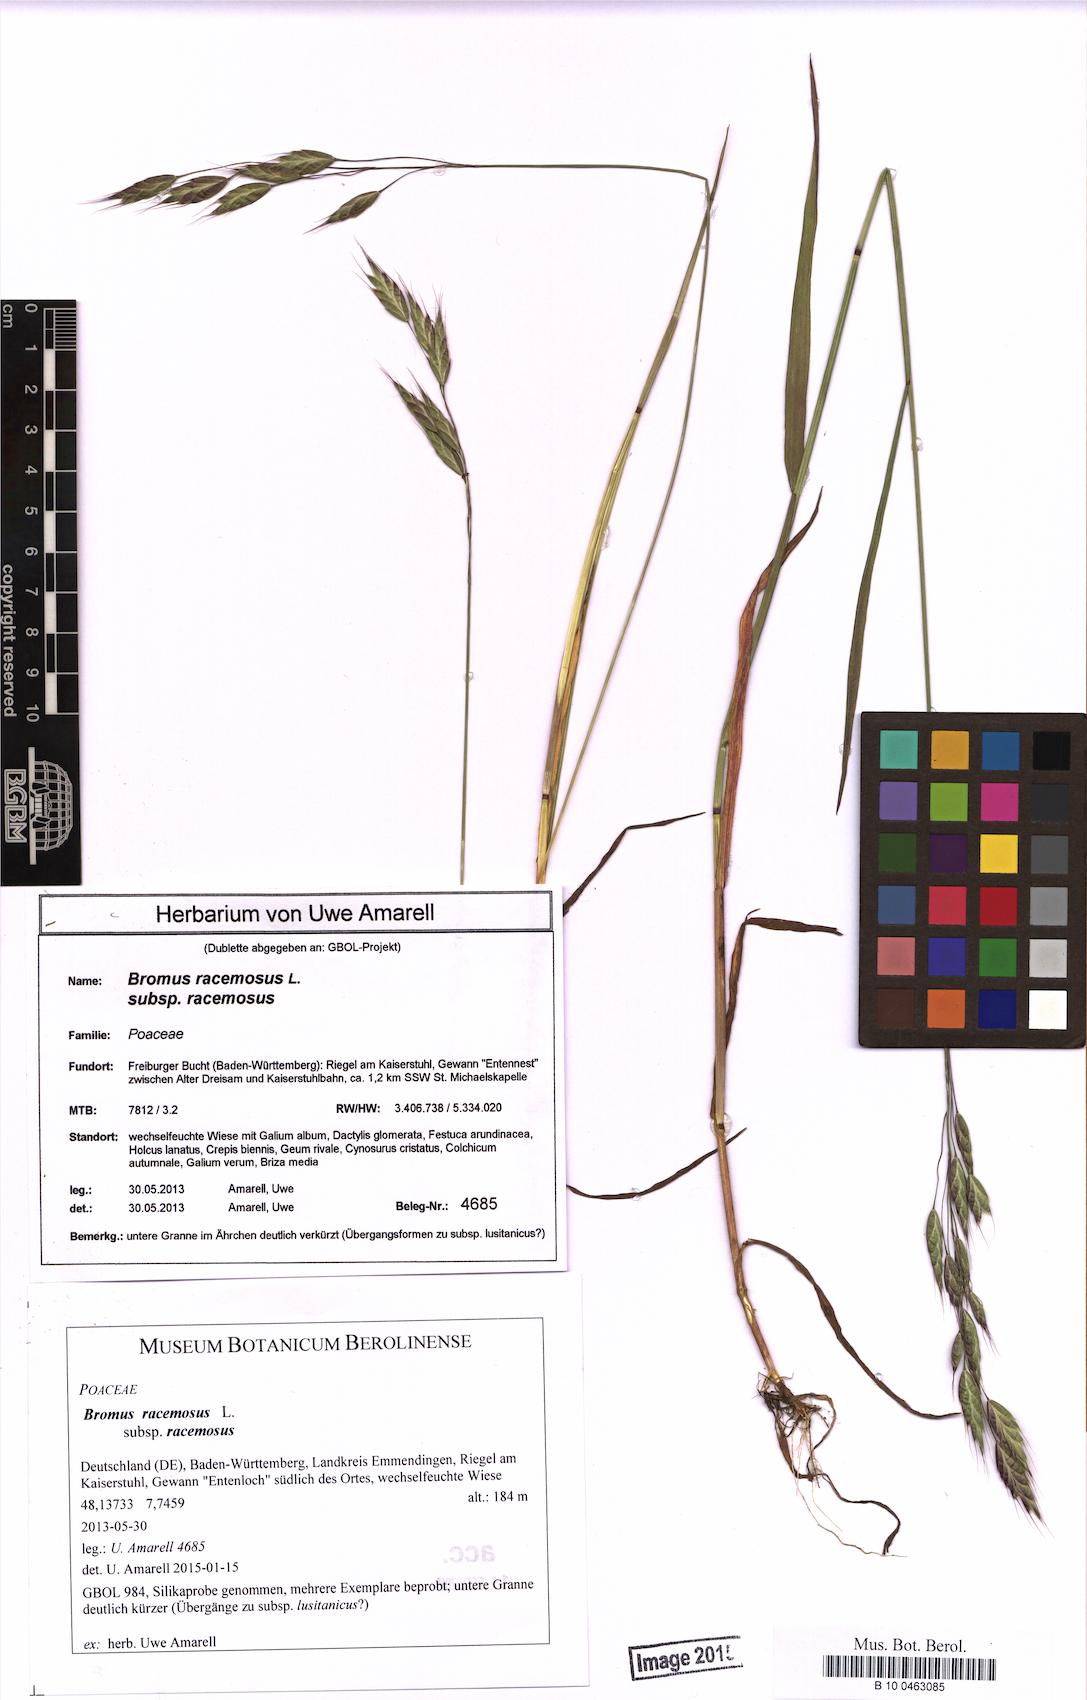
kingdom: Plantae
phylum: Tracheophyta
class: Liliopsida
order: Poales
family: Poaceae
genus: Bromus
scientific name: Bromus racemosus
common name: Bald brome
